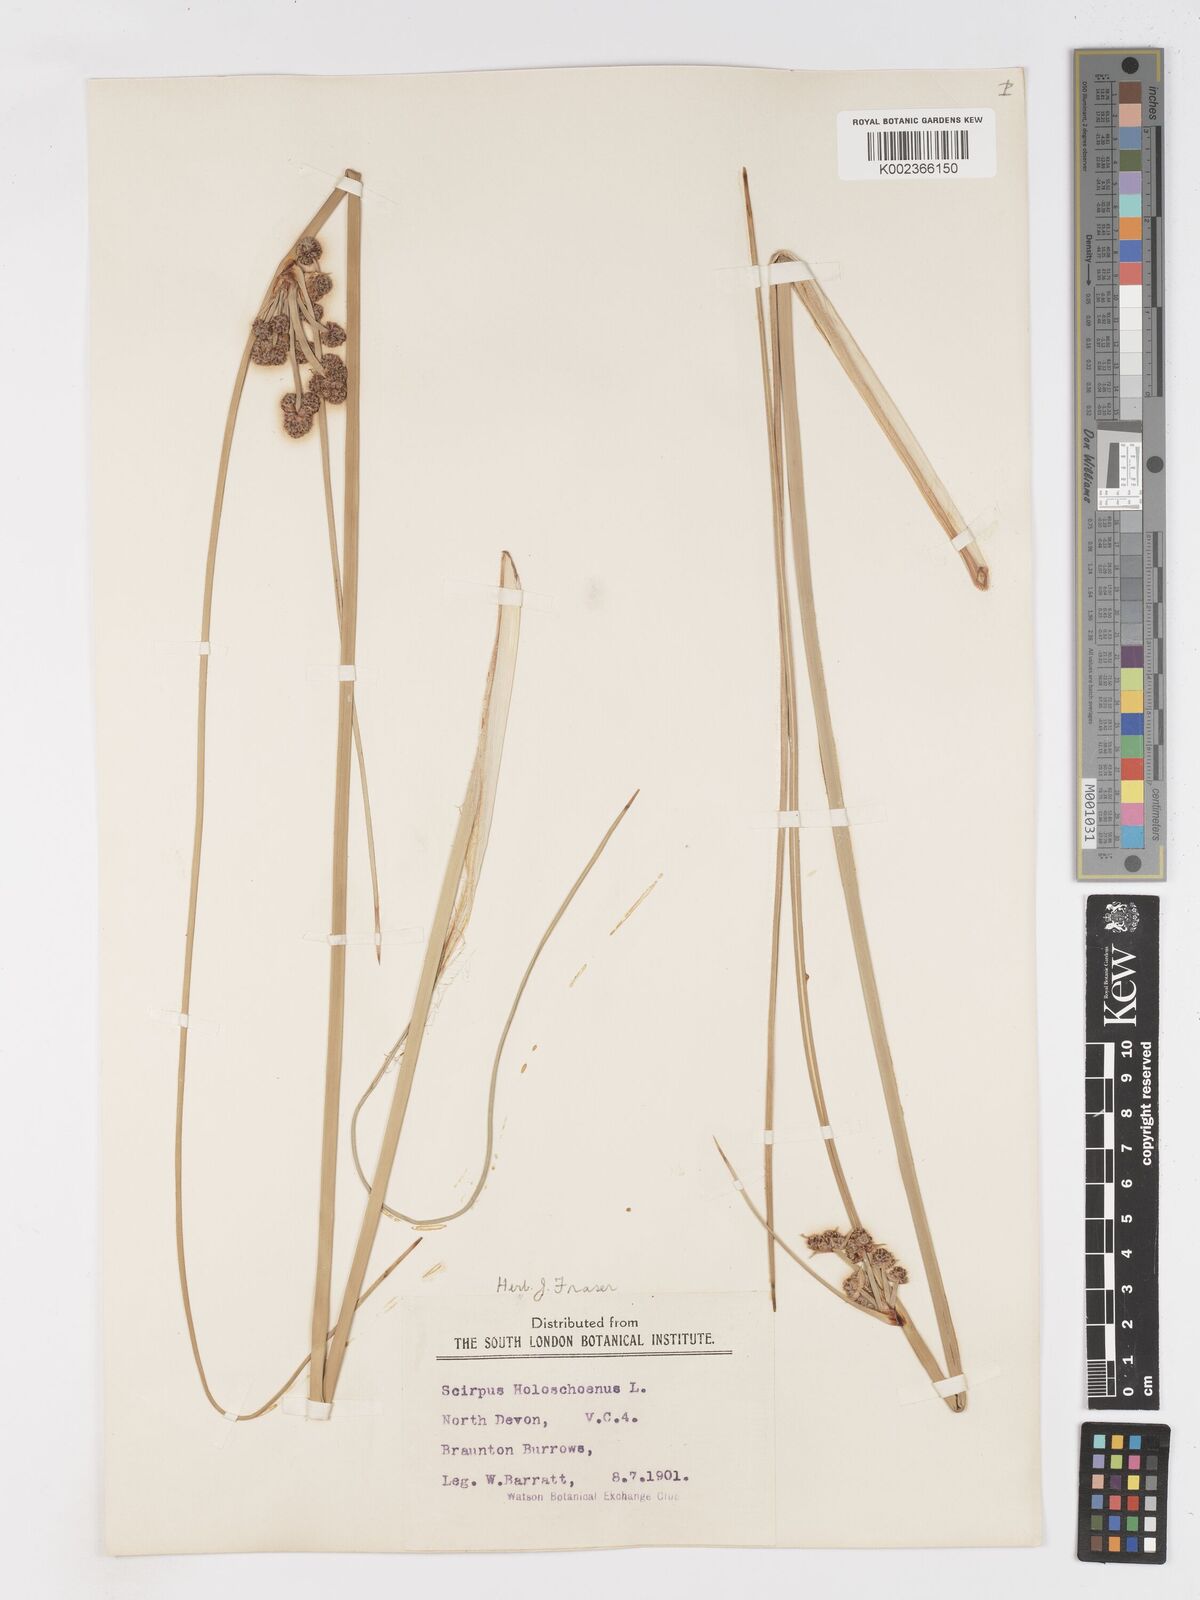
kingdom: Plantae
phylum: Tracheophyta
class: Liliopsida
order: Poales
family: Cyperaceae
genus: Scirpoides
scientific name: Scirpoides holoschoenus
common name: Round-headed club-rush
